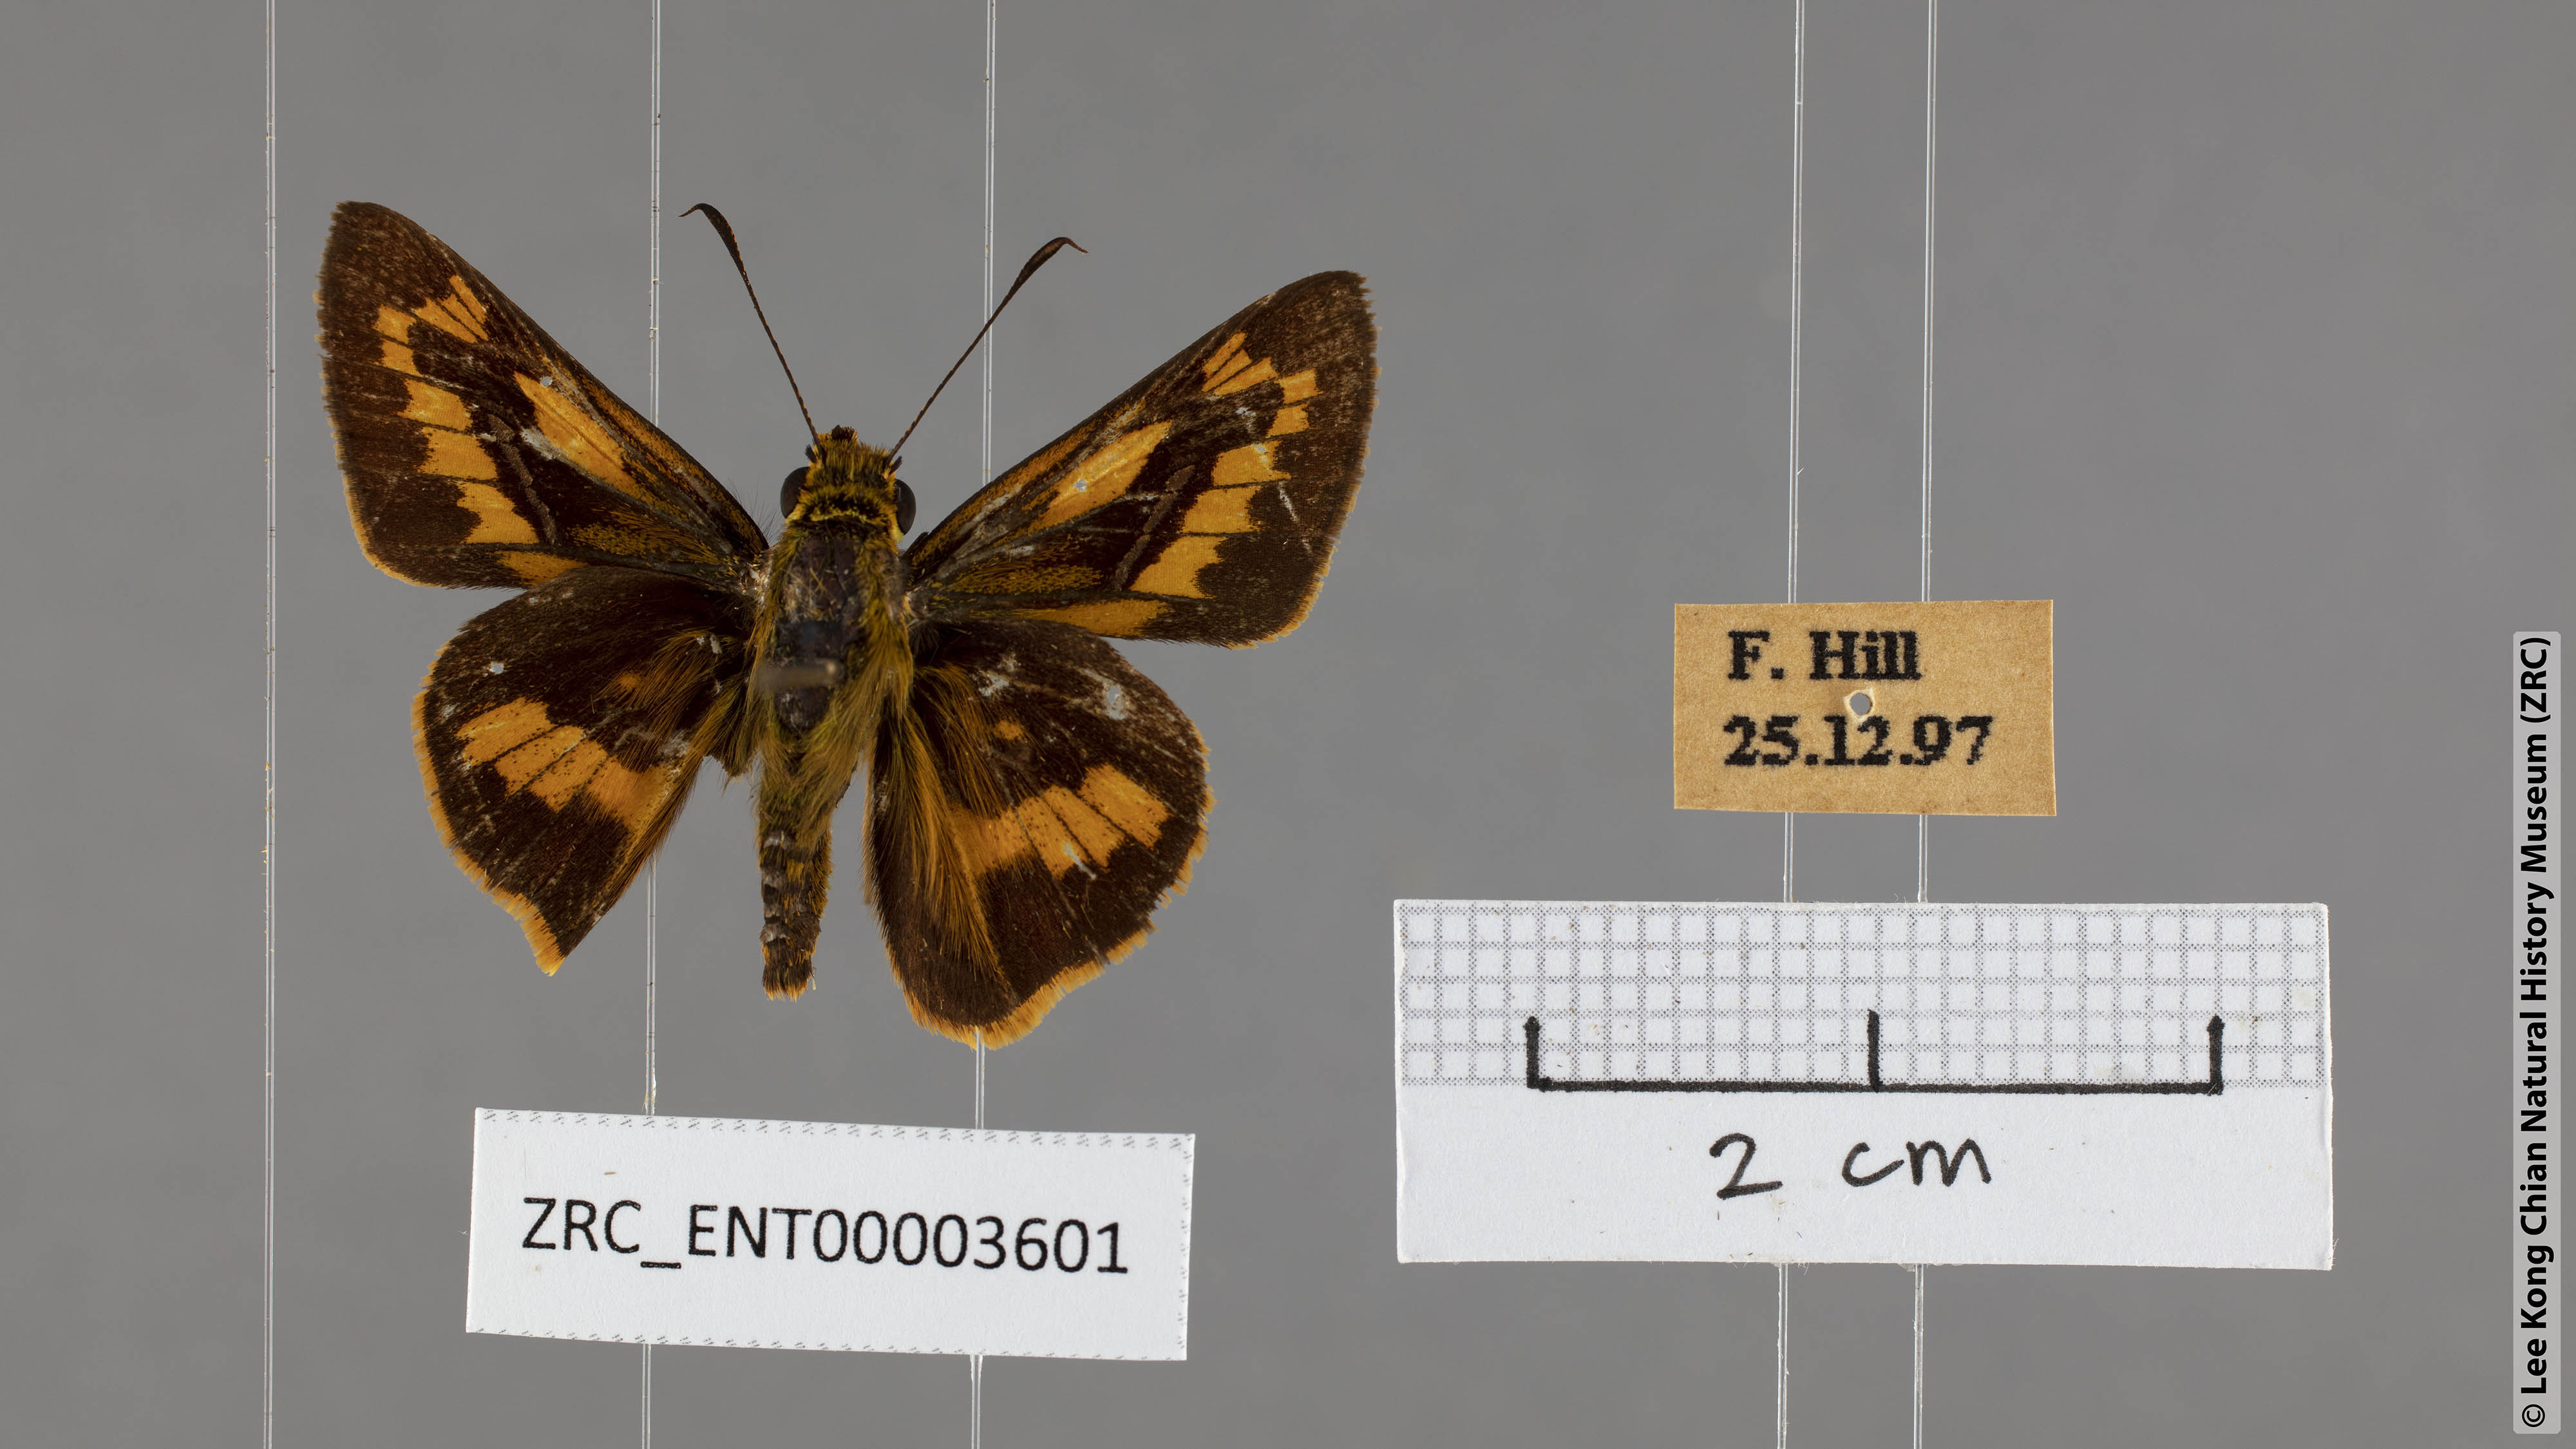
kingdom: Animalia
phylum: Arthropoda
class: Insecta
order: Lepidoptera
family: Hesperiidae
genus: Telicota
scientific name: Telicota ohara
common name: Dark palm dart
